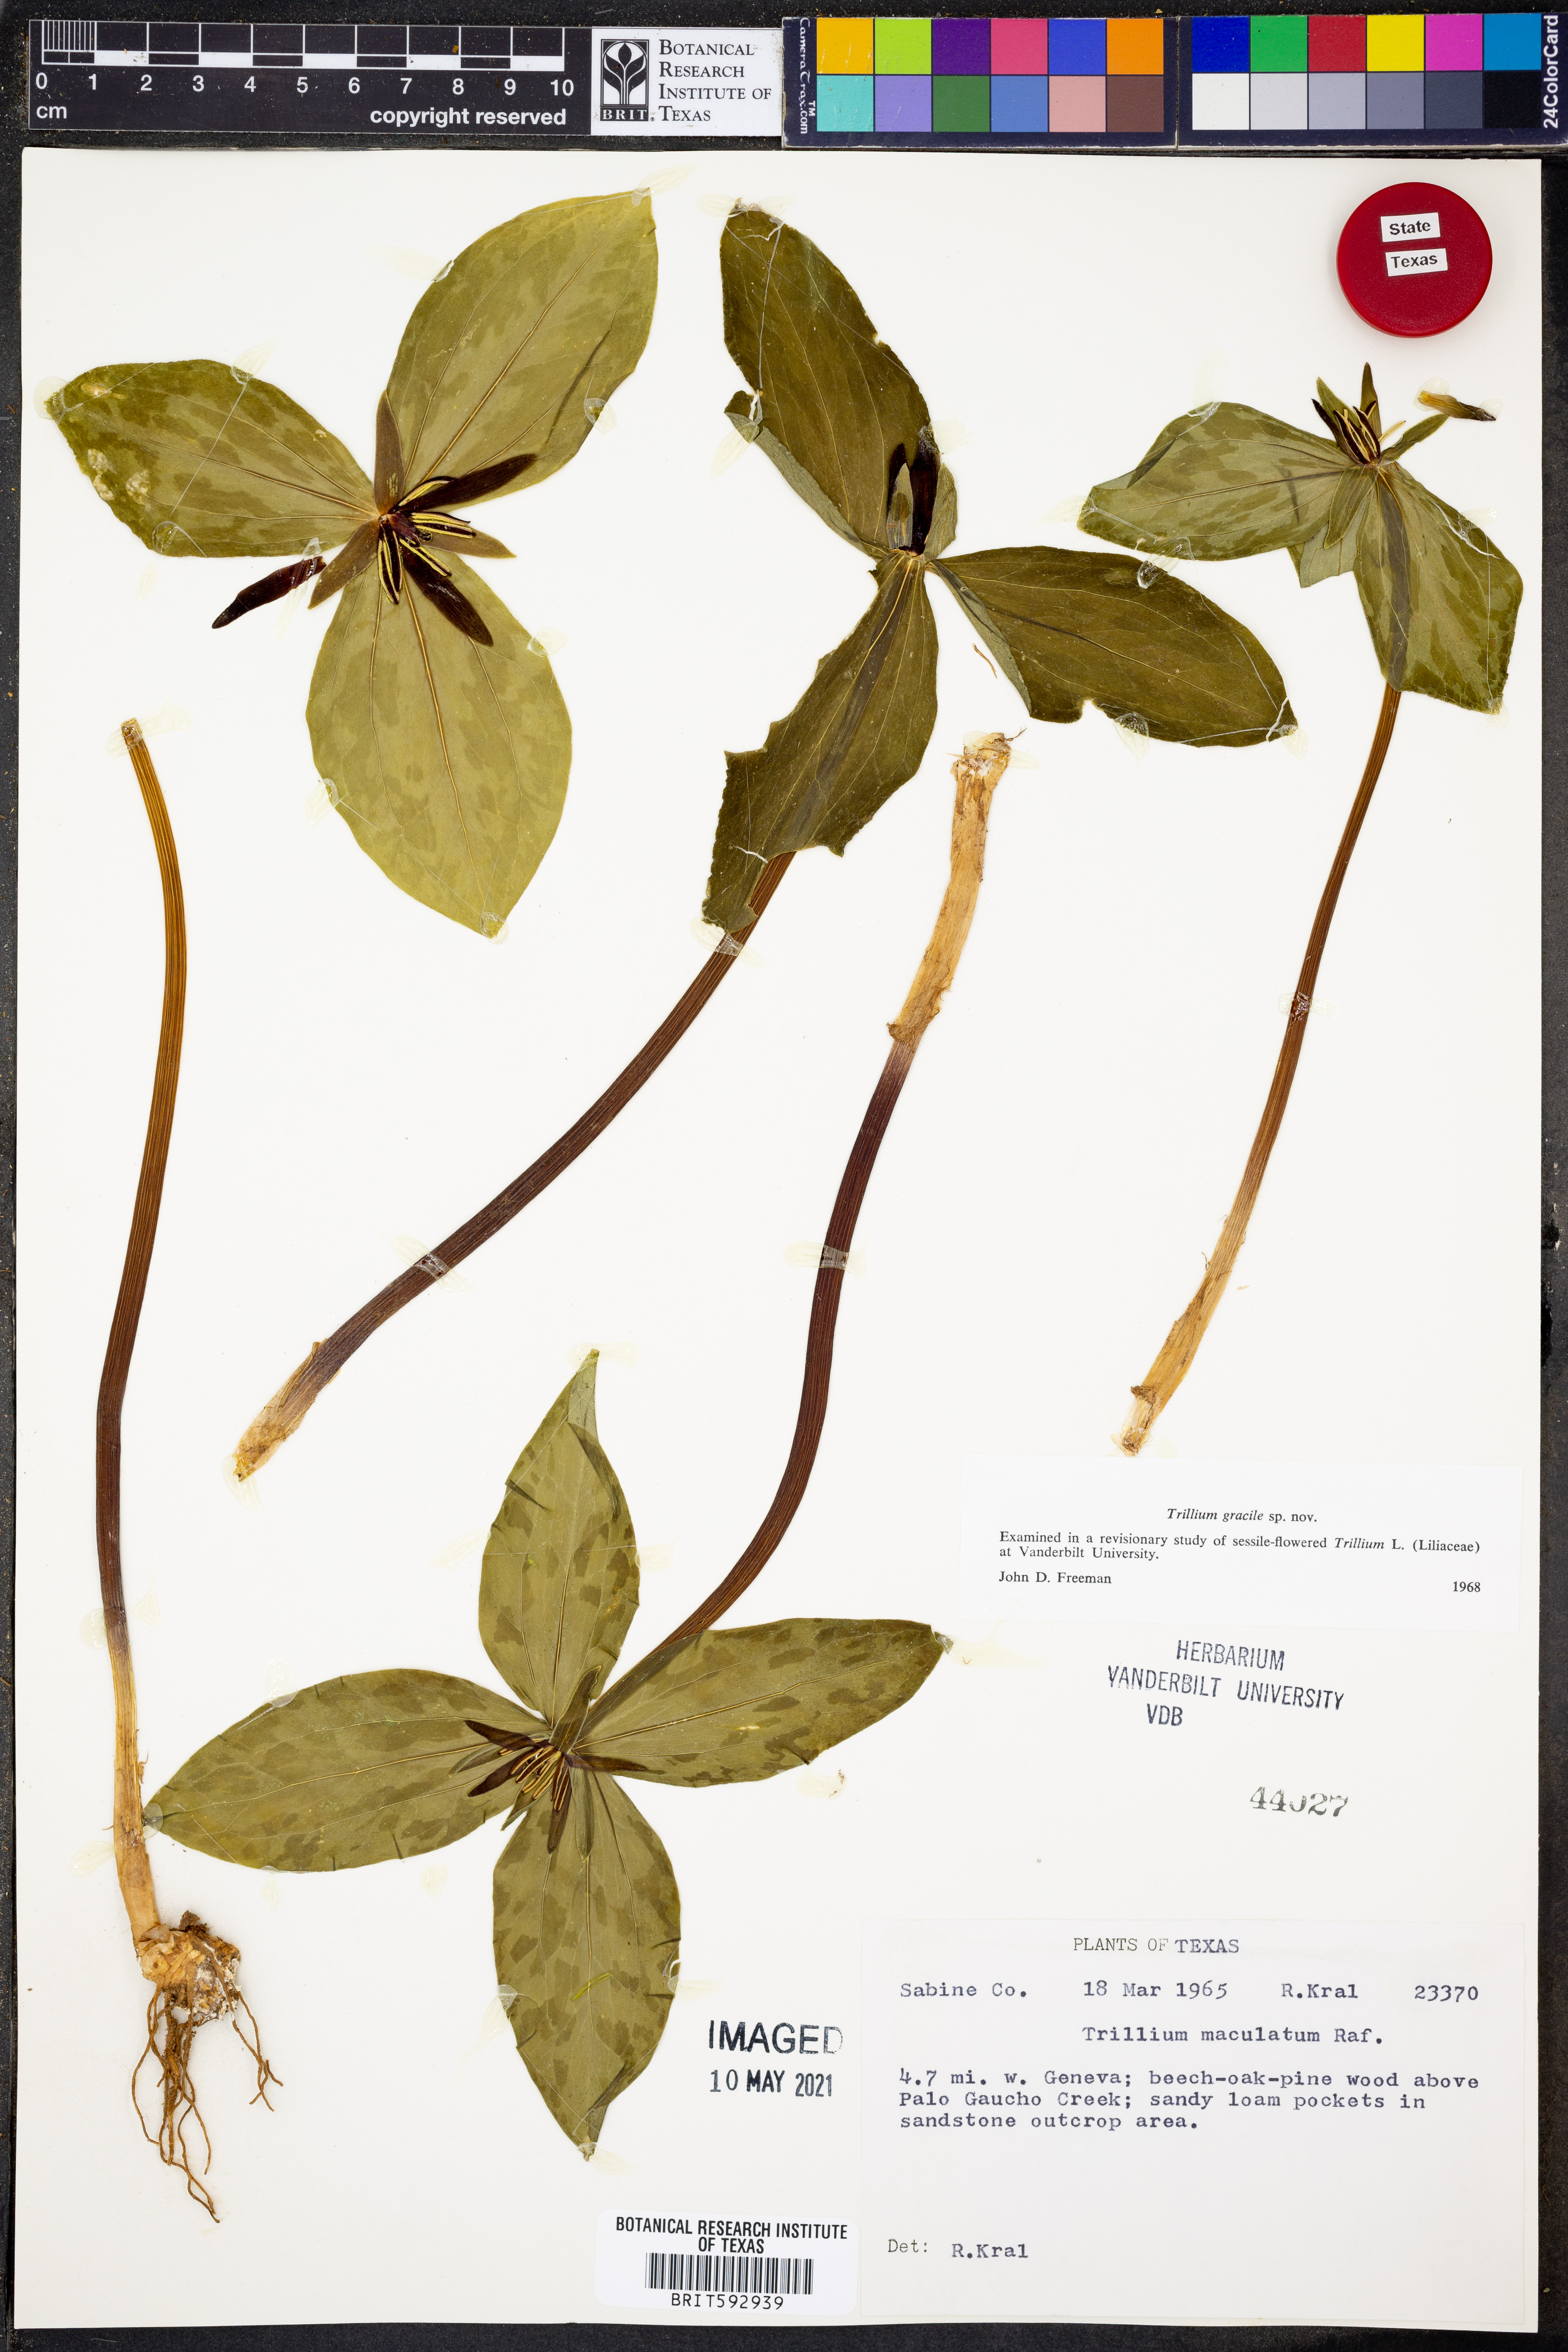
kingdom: Plantae
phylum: Tracheophyta
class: Liliopsida
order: Liliales
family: Melanthiaceae
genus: Trillium
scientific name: Trillium gracile
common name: Graceful trillium
